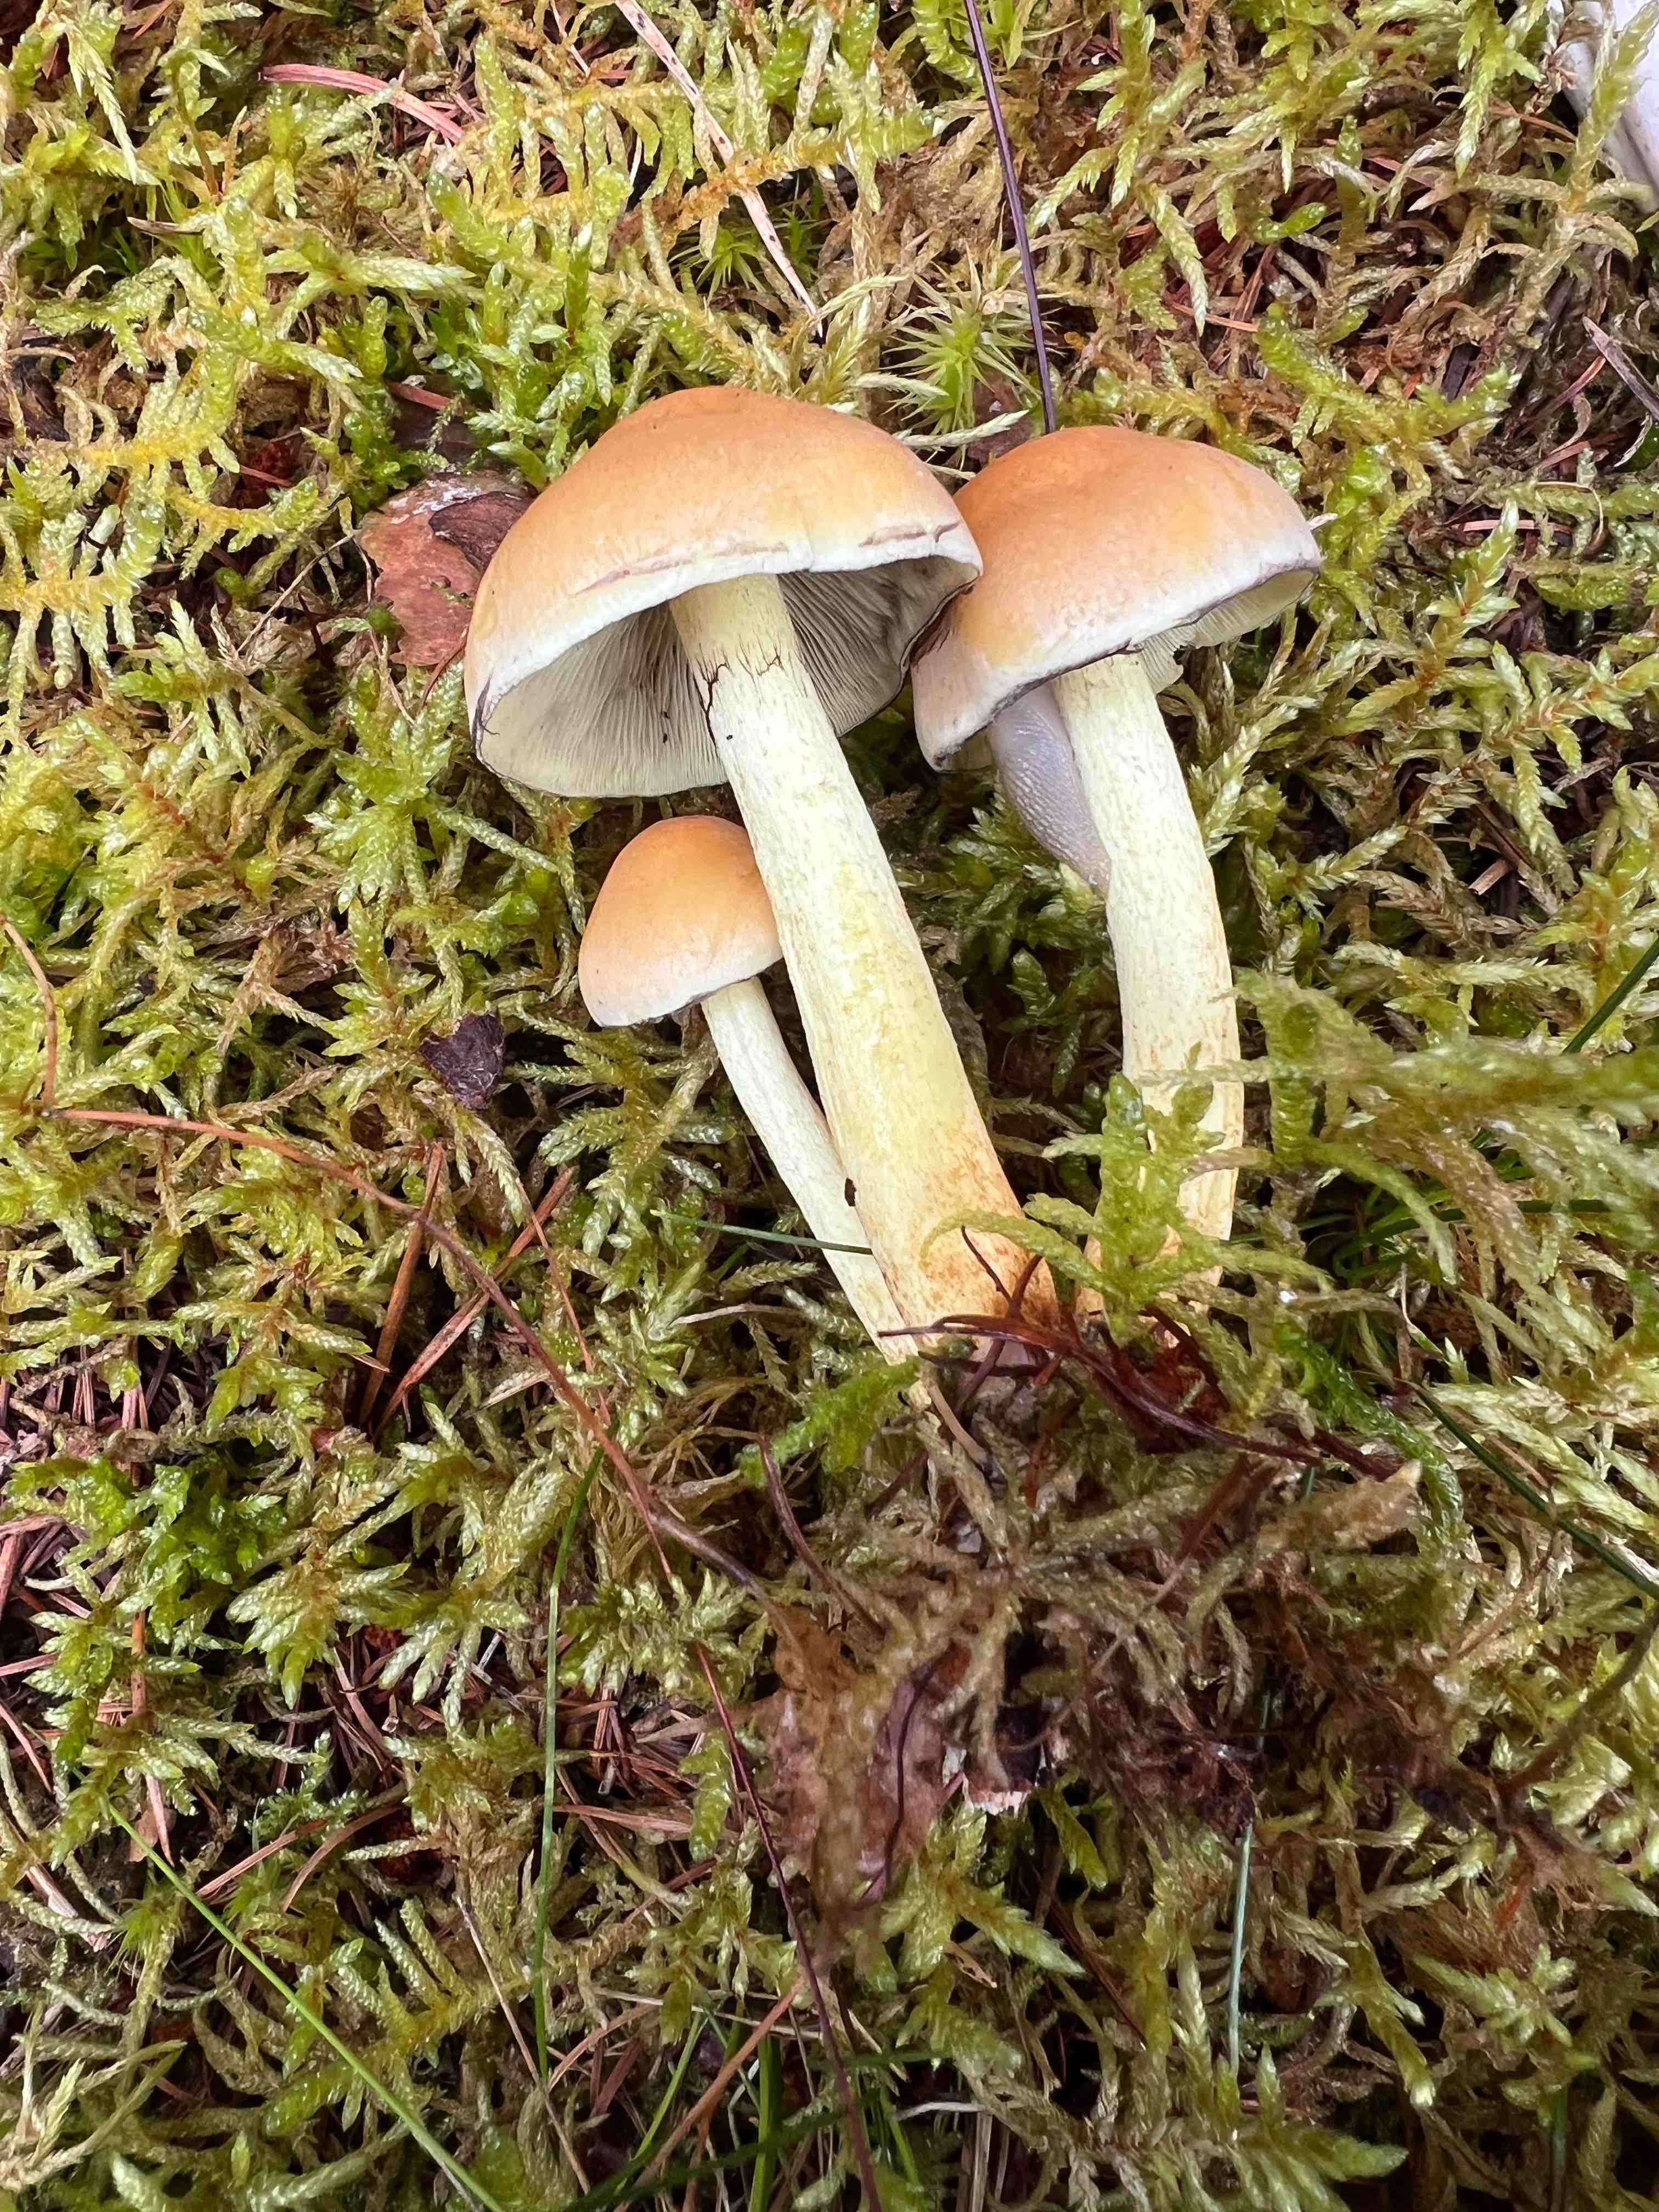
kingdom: Fungi
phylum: Basidiomycota
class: Agaricomycetes
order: Agaricales
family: Strophariaceae
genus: Hypholoma
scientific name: Hypholoma fasciculare
